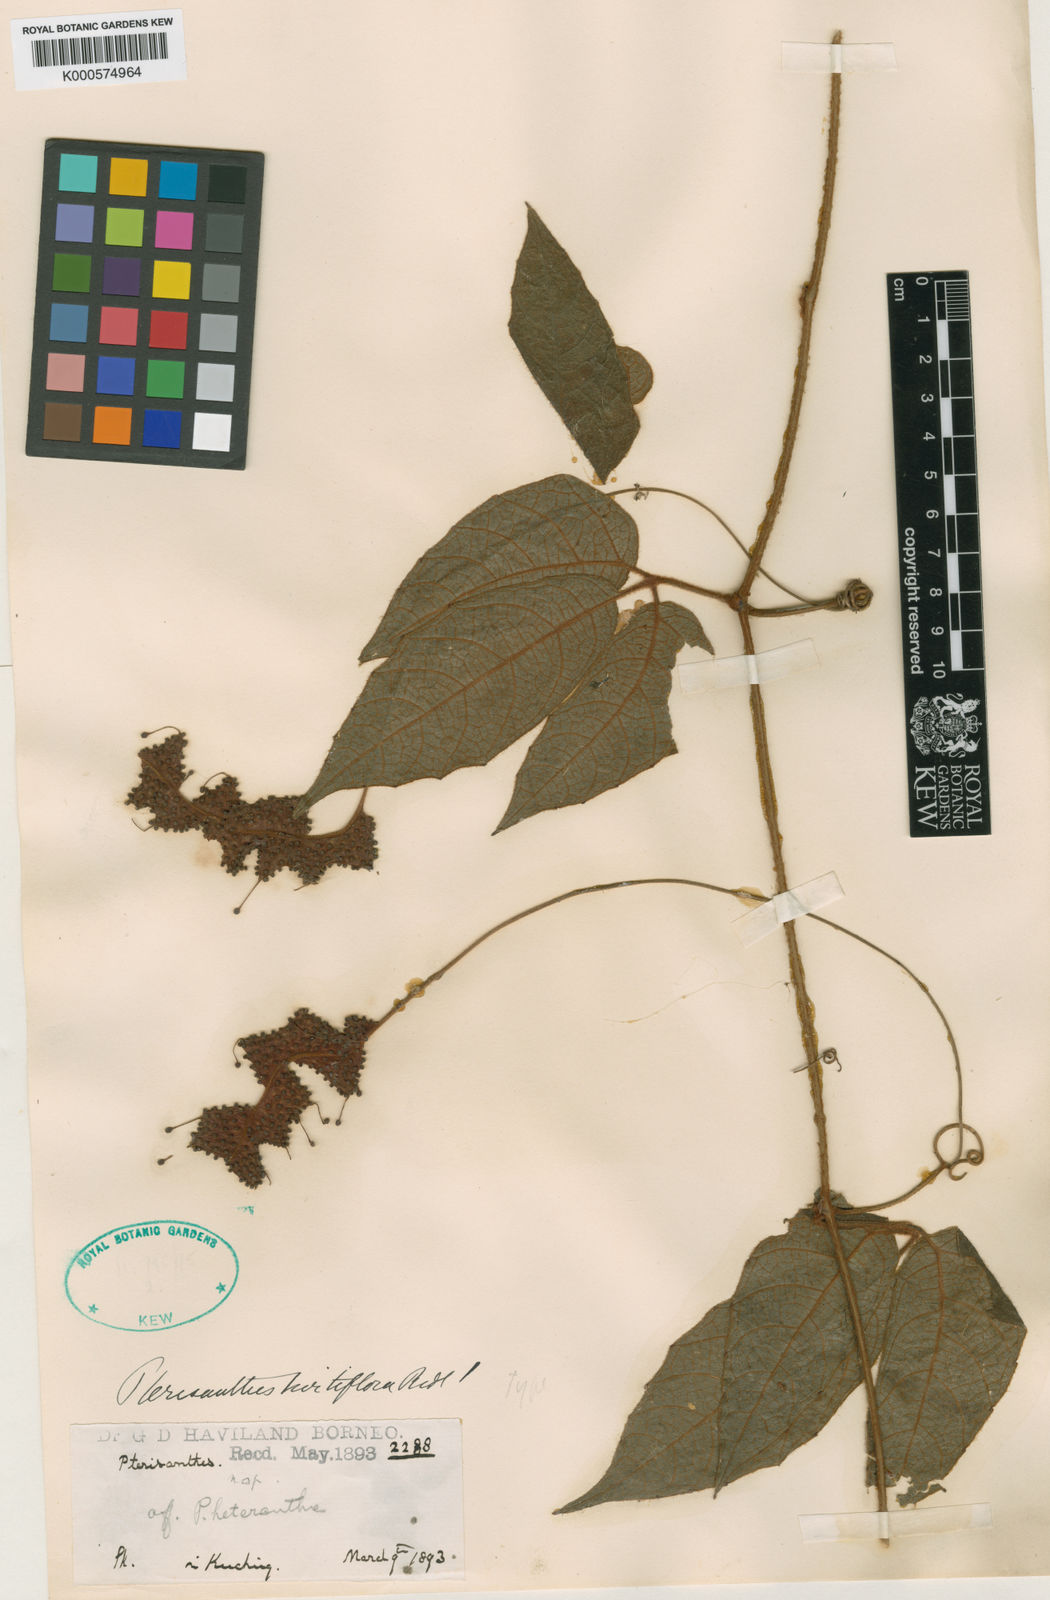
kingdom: Plantae
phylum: Tracheophyta
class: Magnoliopsida
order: Vitales
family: Vitaceae
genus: Pterisanthes
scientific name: Pterisanthes grandis
